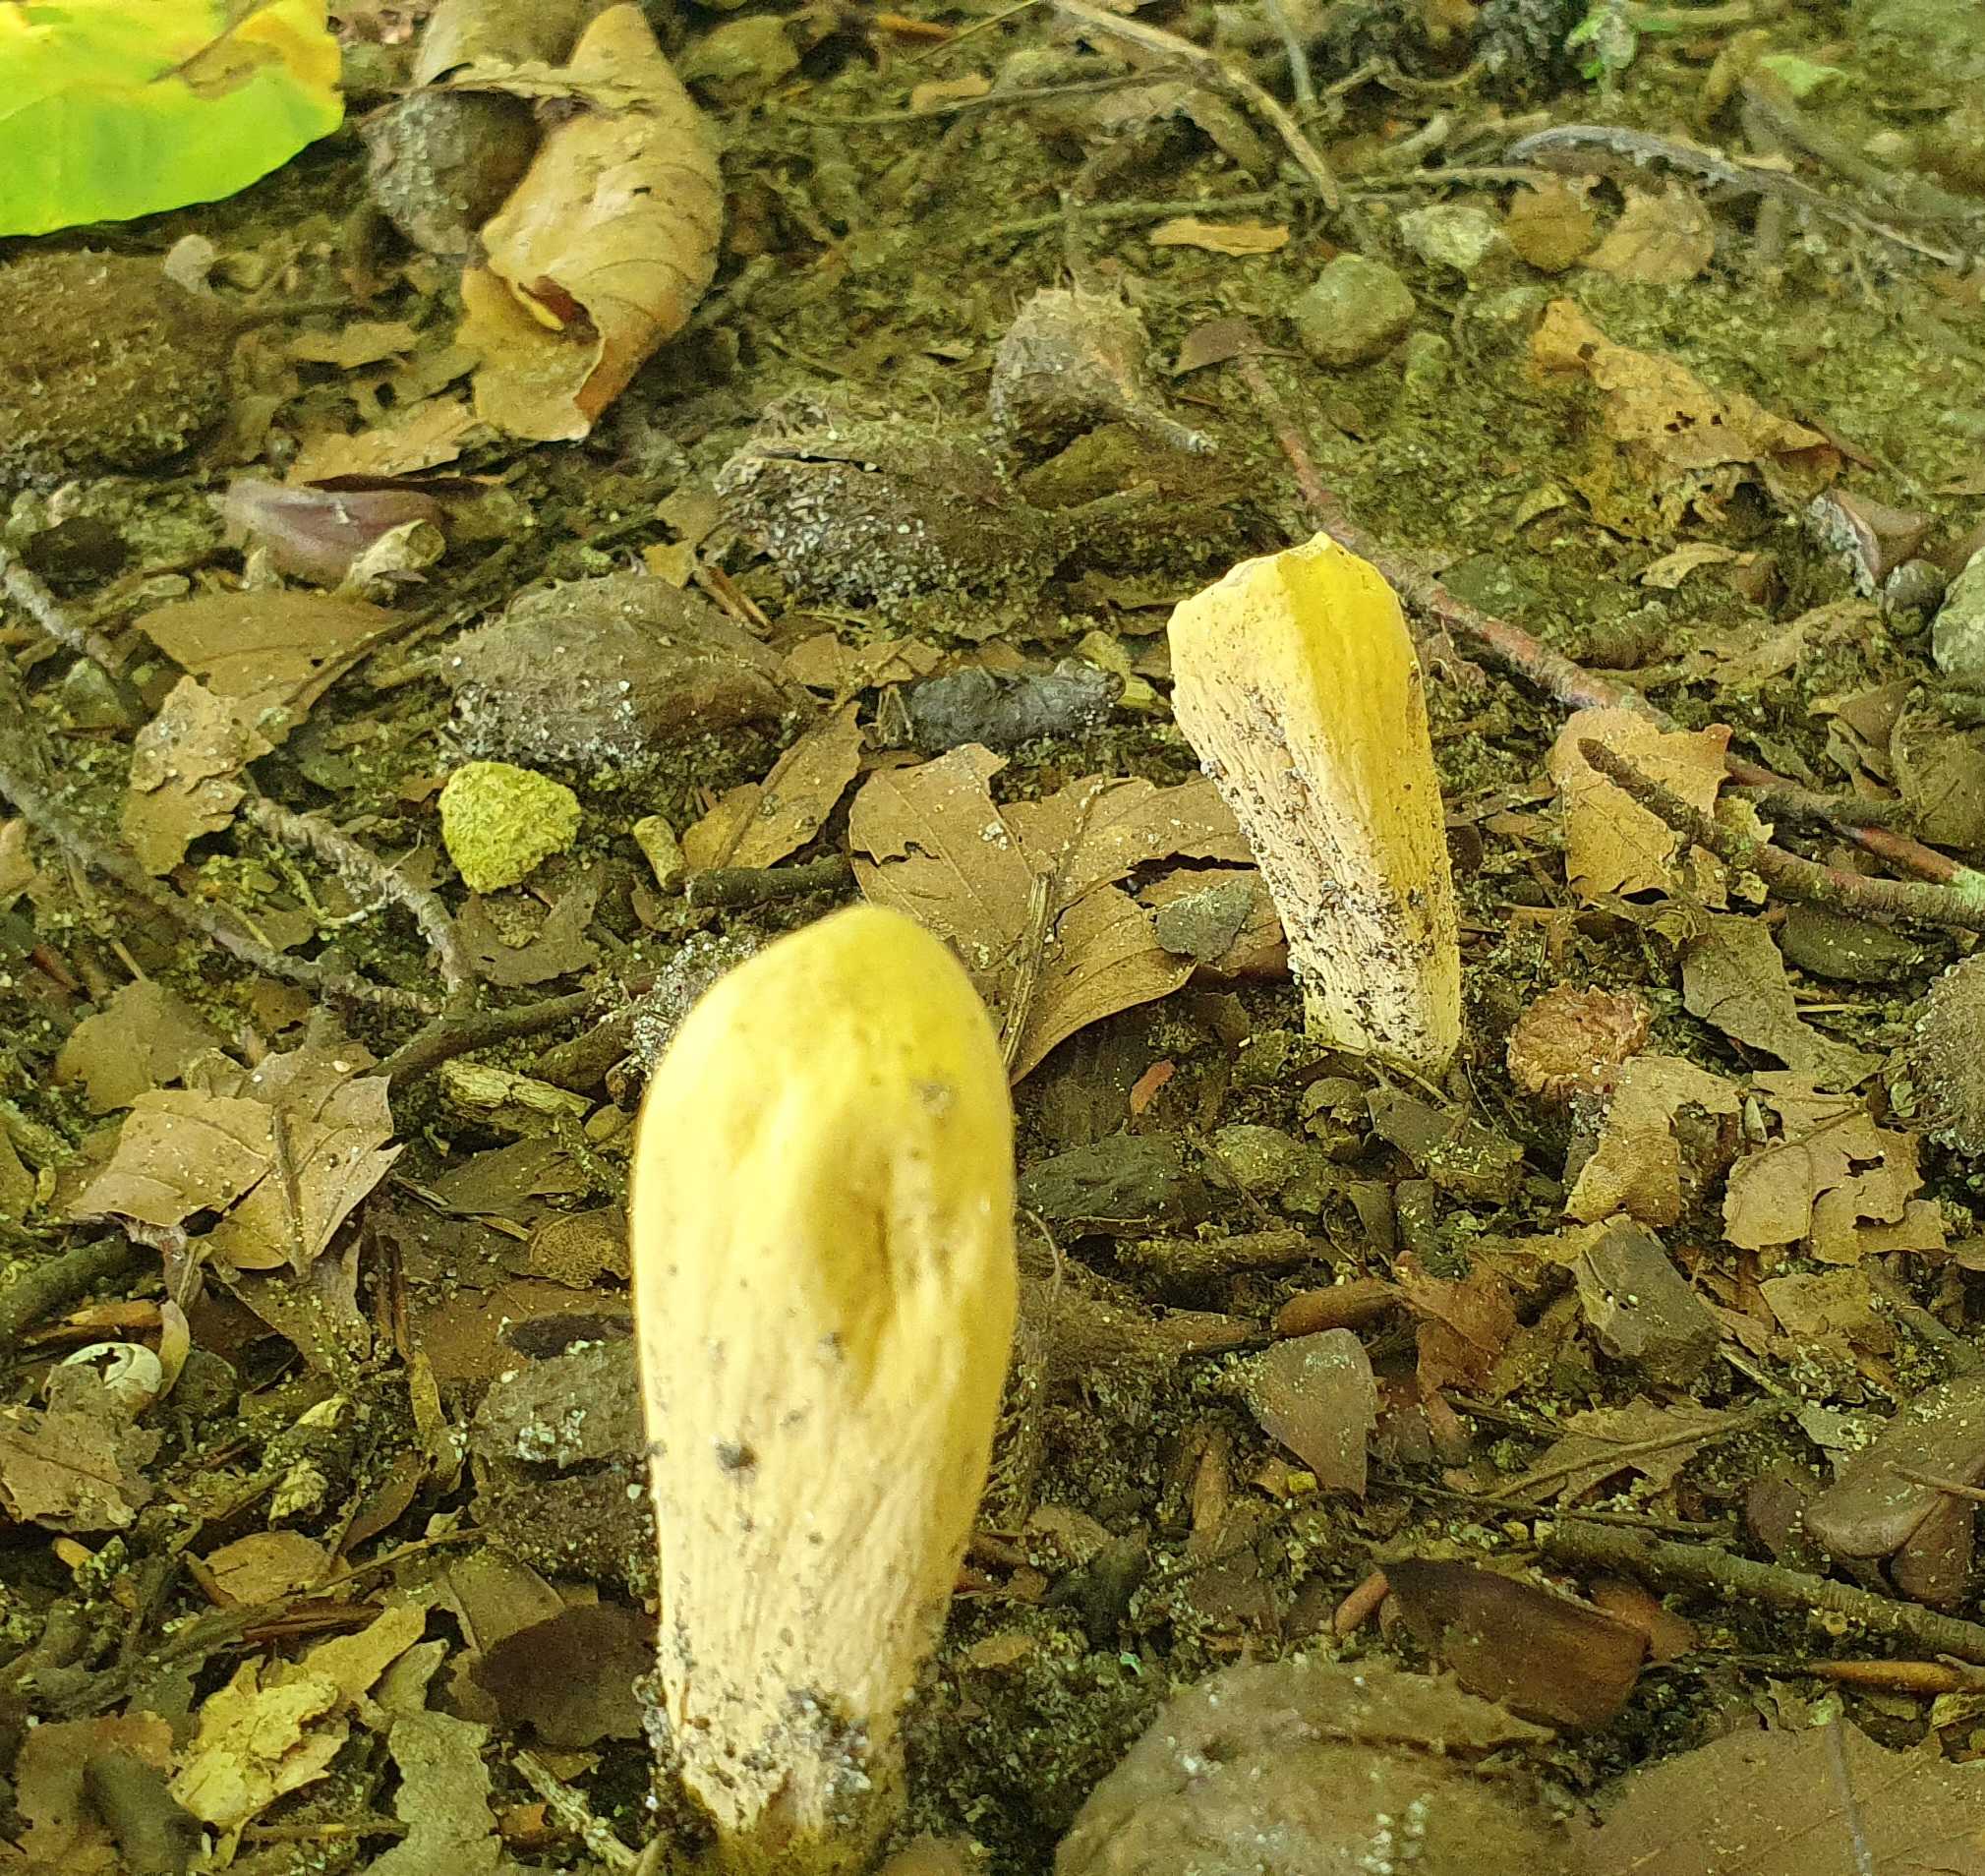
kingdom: Fungi
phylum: Basidiomycota
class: Agaricomycetes
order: Gomphales
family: Clavariadelphaceae
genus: Clavariadelphus
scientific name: Clavariadelphus pistillaris
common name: herkules-kæmpekølle
